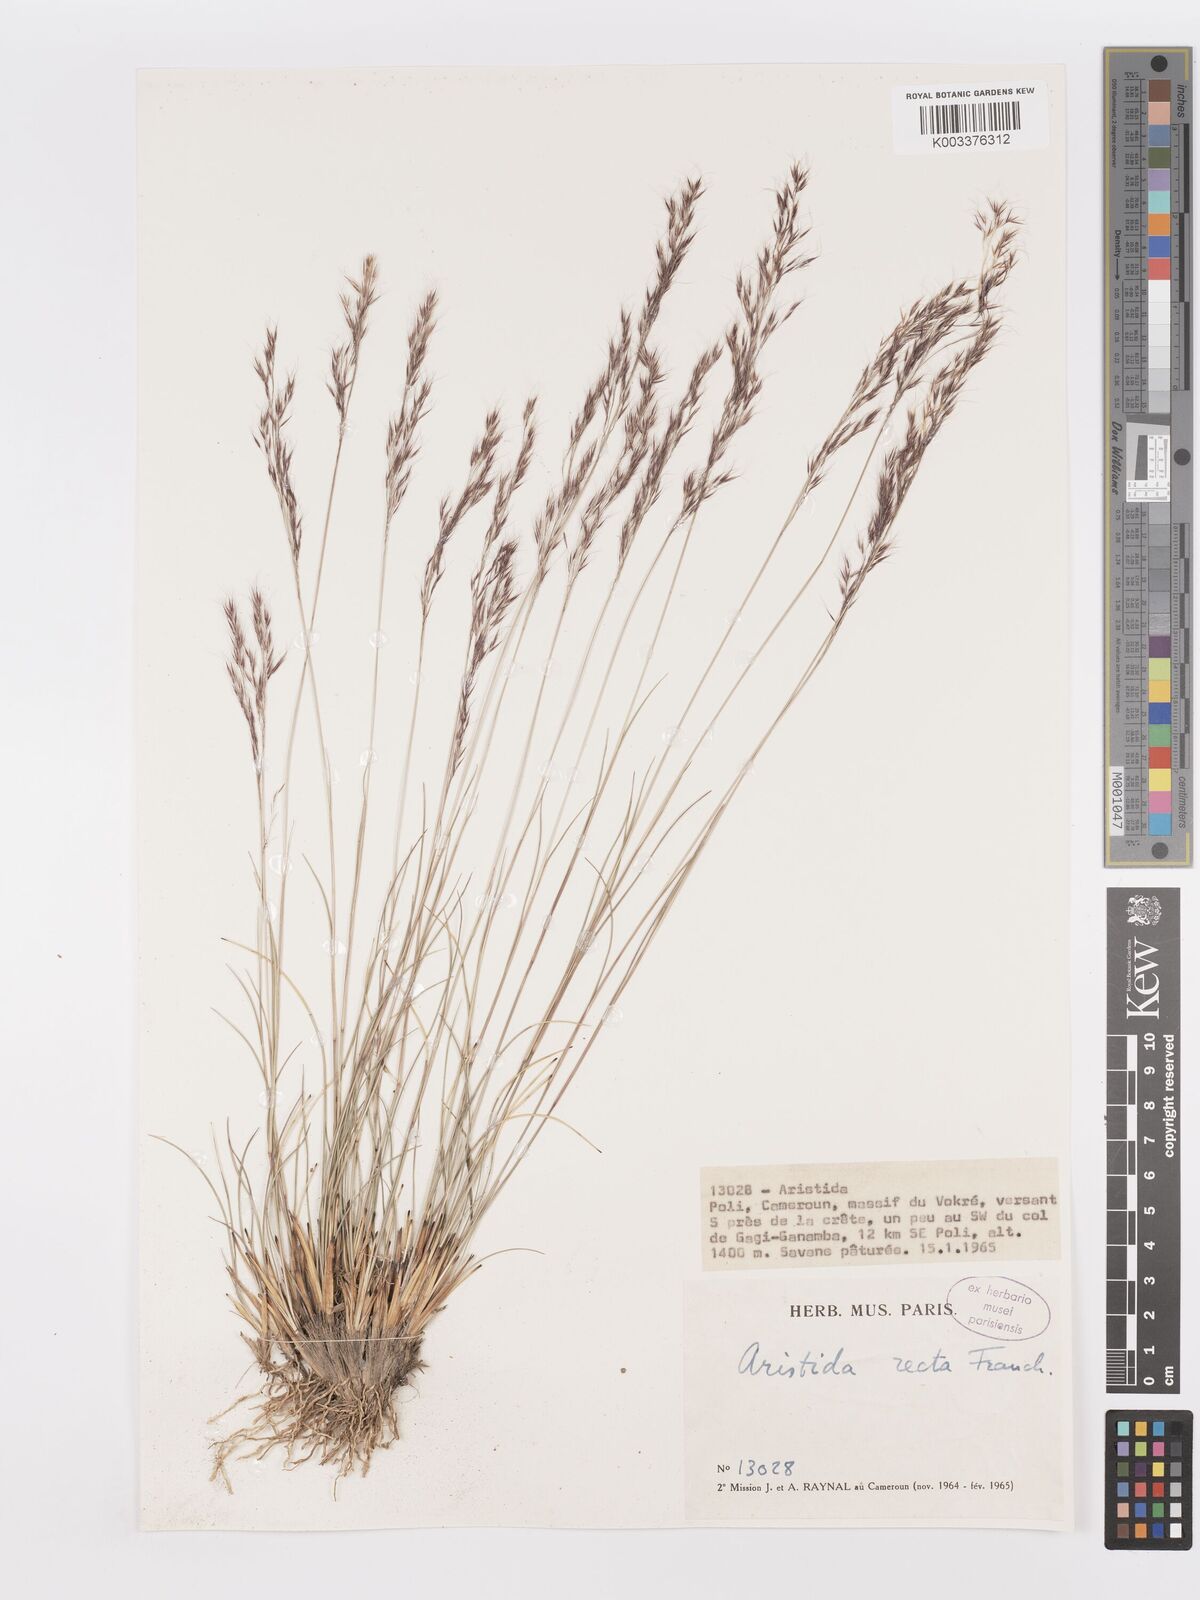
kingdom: Plantae
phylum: Tracheophyta
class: Liliopsida
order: Poales
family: Poaceae
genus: Aristida
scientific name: Aristida recta
